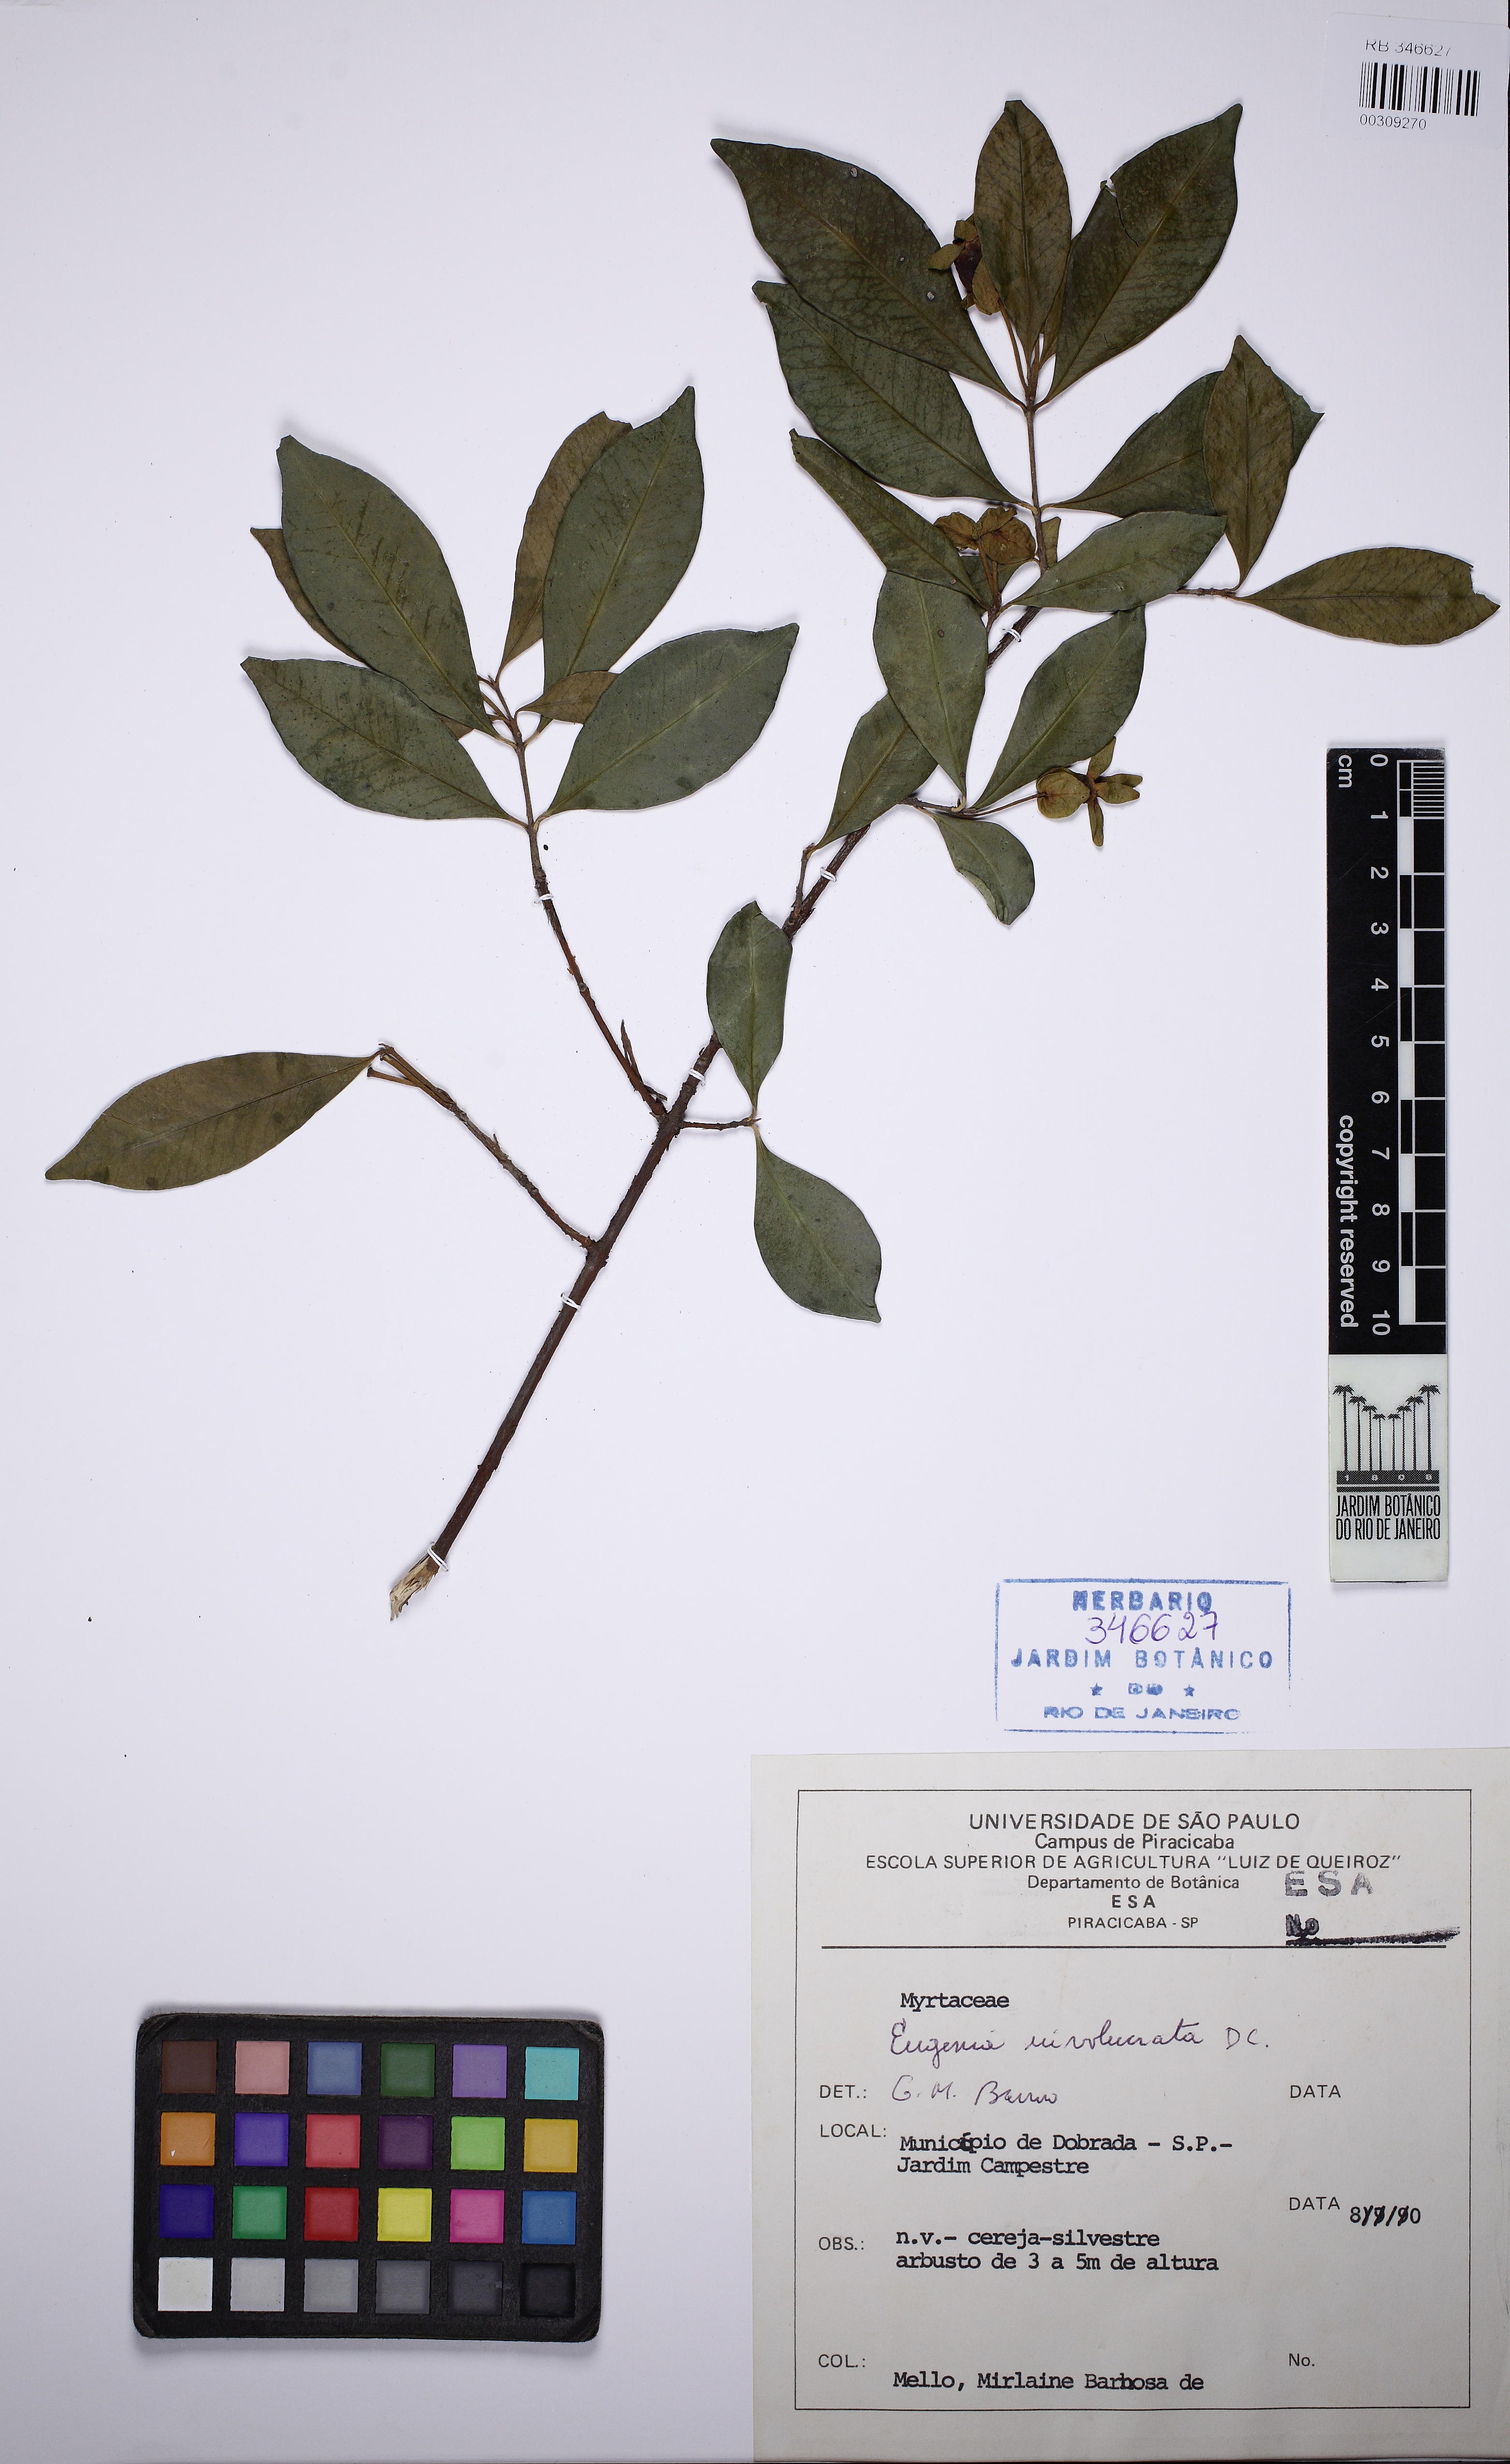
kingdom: Plantae
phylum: Tracheophyta
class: Magnoliopsida
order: Myrtales
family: Myrtaceae
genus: Eugenia
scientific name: Eugenia involucrata
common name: Cherry-of-the-rio grande
